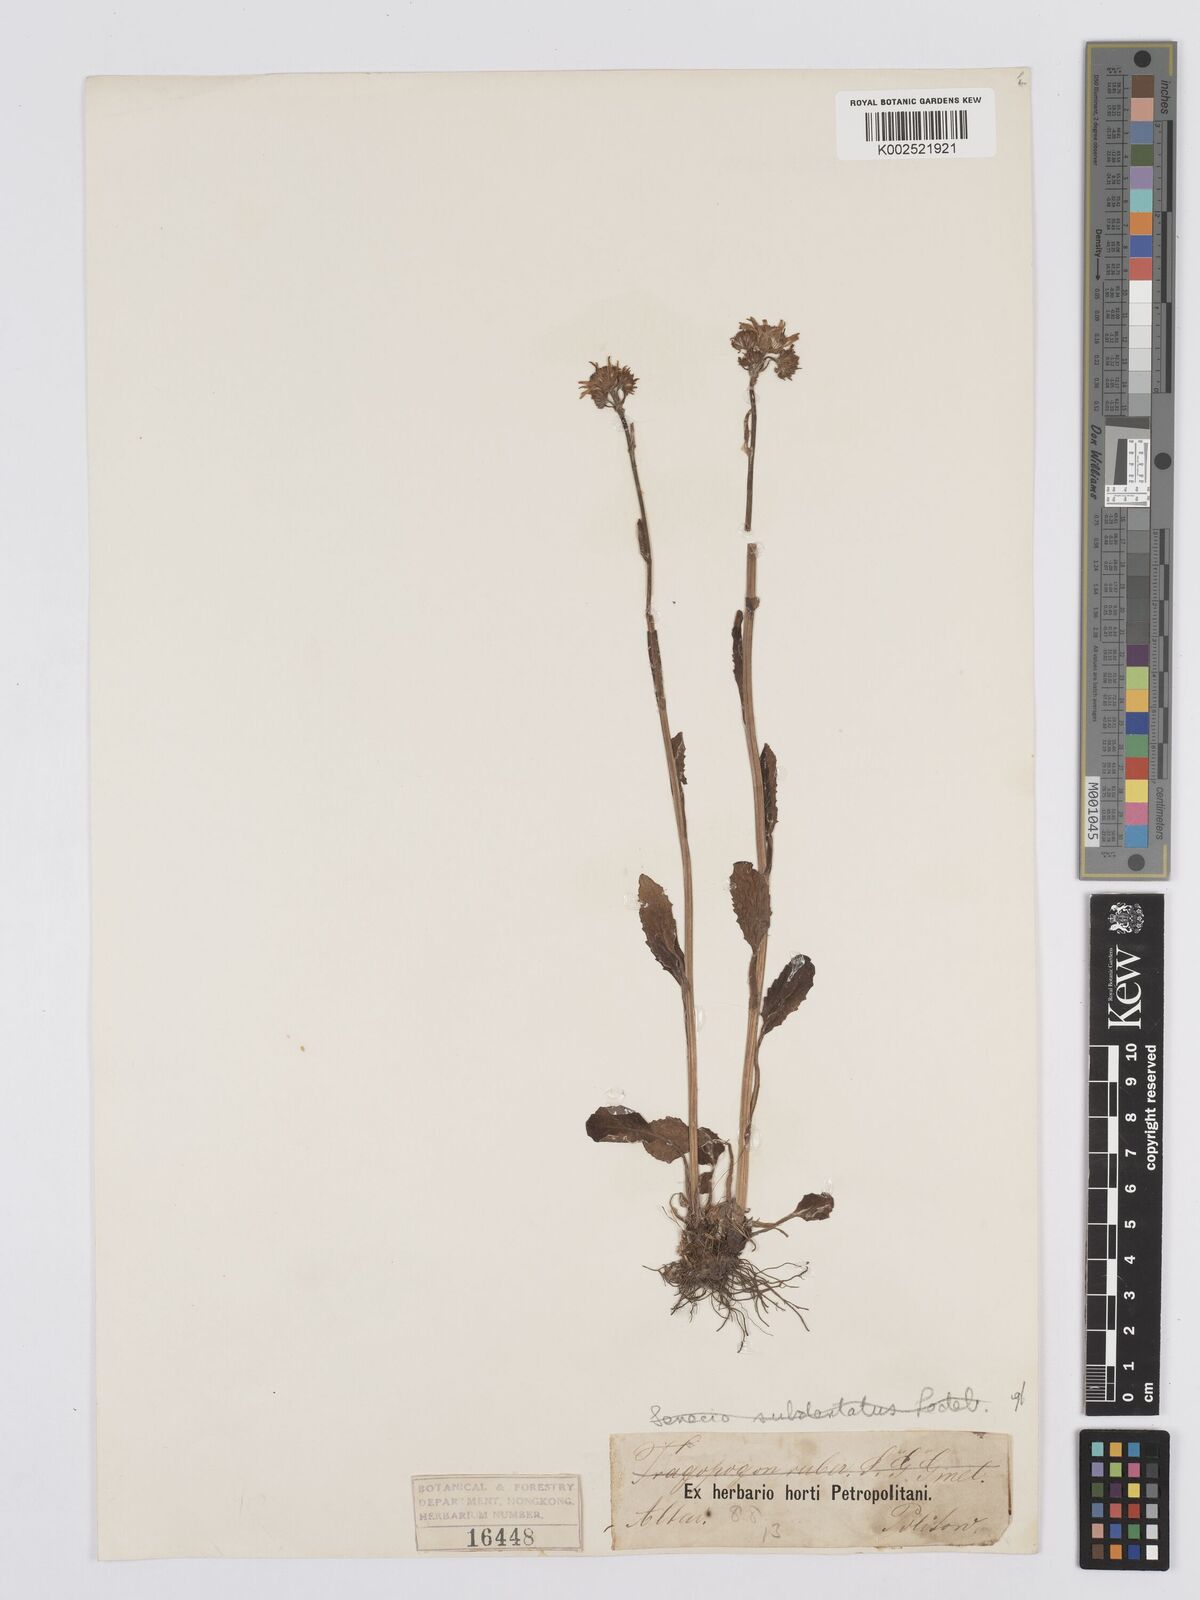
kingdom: Plantae
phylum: Tracheophyta
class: Magnoliopsida
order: Asterales
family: Asteraceae
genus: Tephroseris
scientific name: Tephroseris integrifolia
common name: Field fleawort
